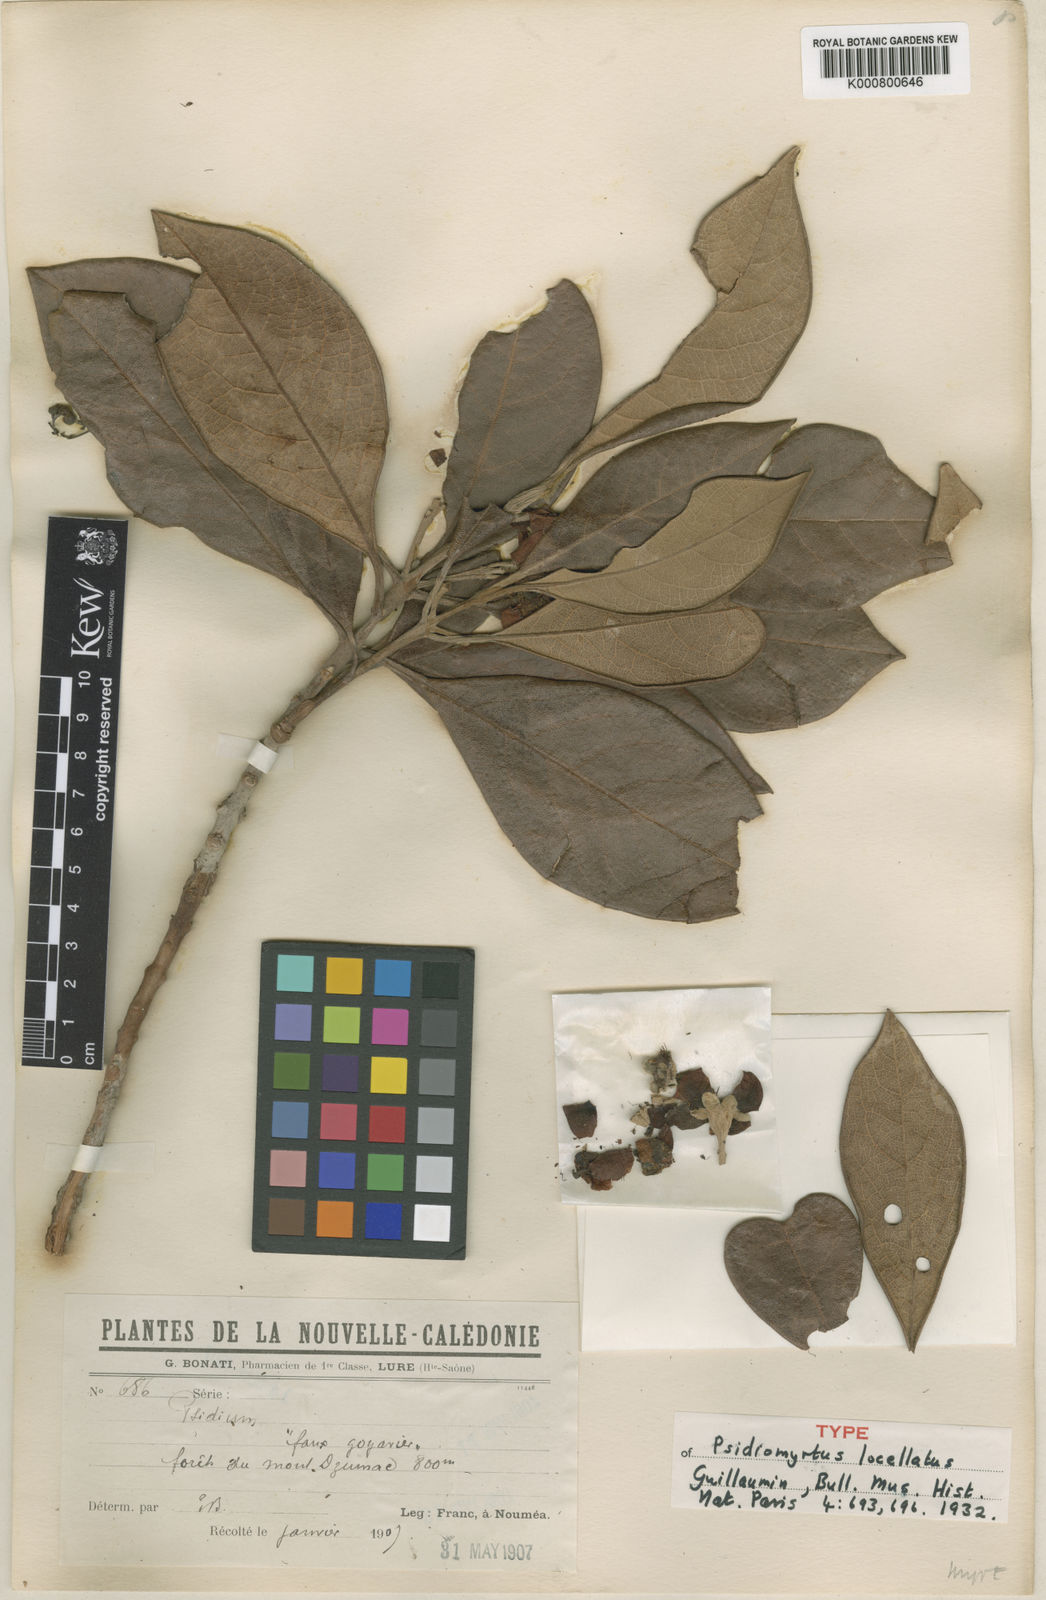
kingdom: Plantae
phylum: Tracheophyta
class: Magnoliopsida
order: Myrtales
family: Myrtaceae
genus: Rhodomyrtus
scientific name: Rhodomyrtus locellata
